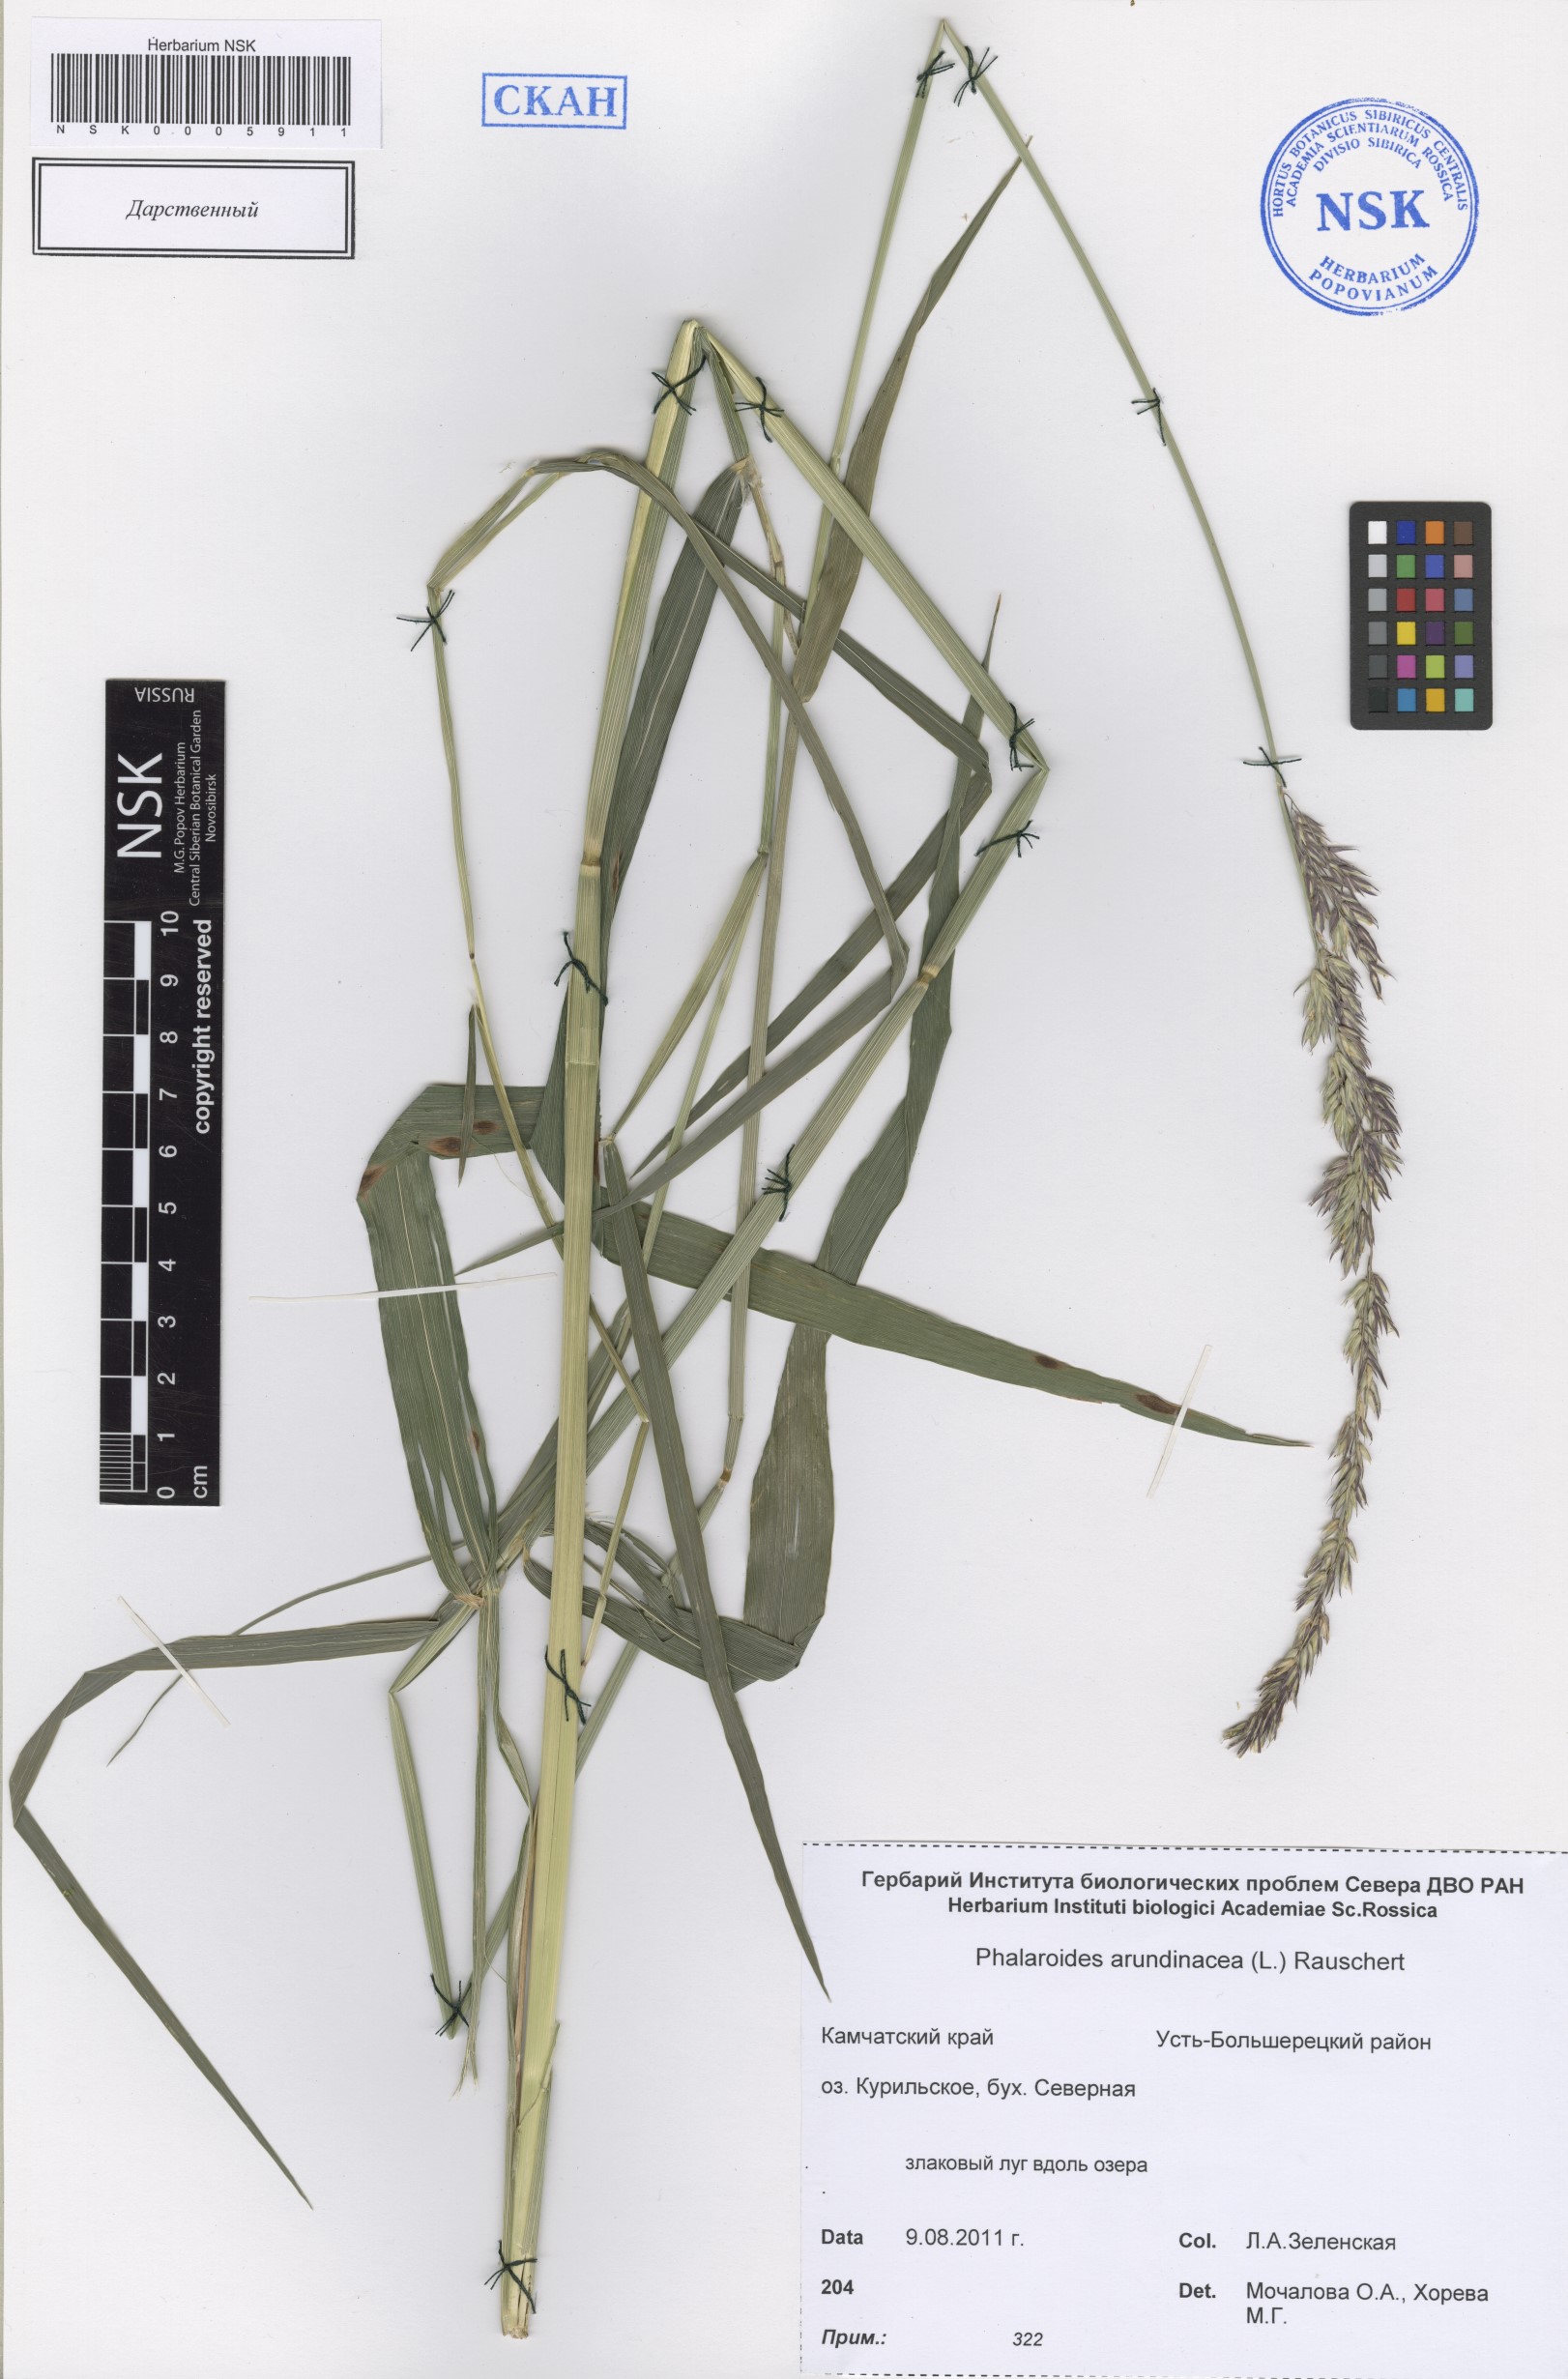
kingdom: Plantae
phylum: Tracheophyta
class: Liliopsida
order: Poales
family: Poaceae
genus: Phalaris
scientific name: Phalaris arundinacea
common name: Reed canary-grass
